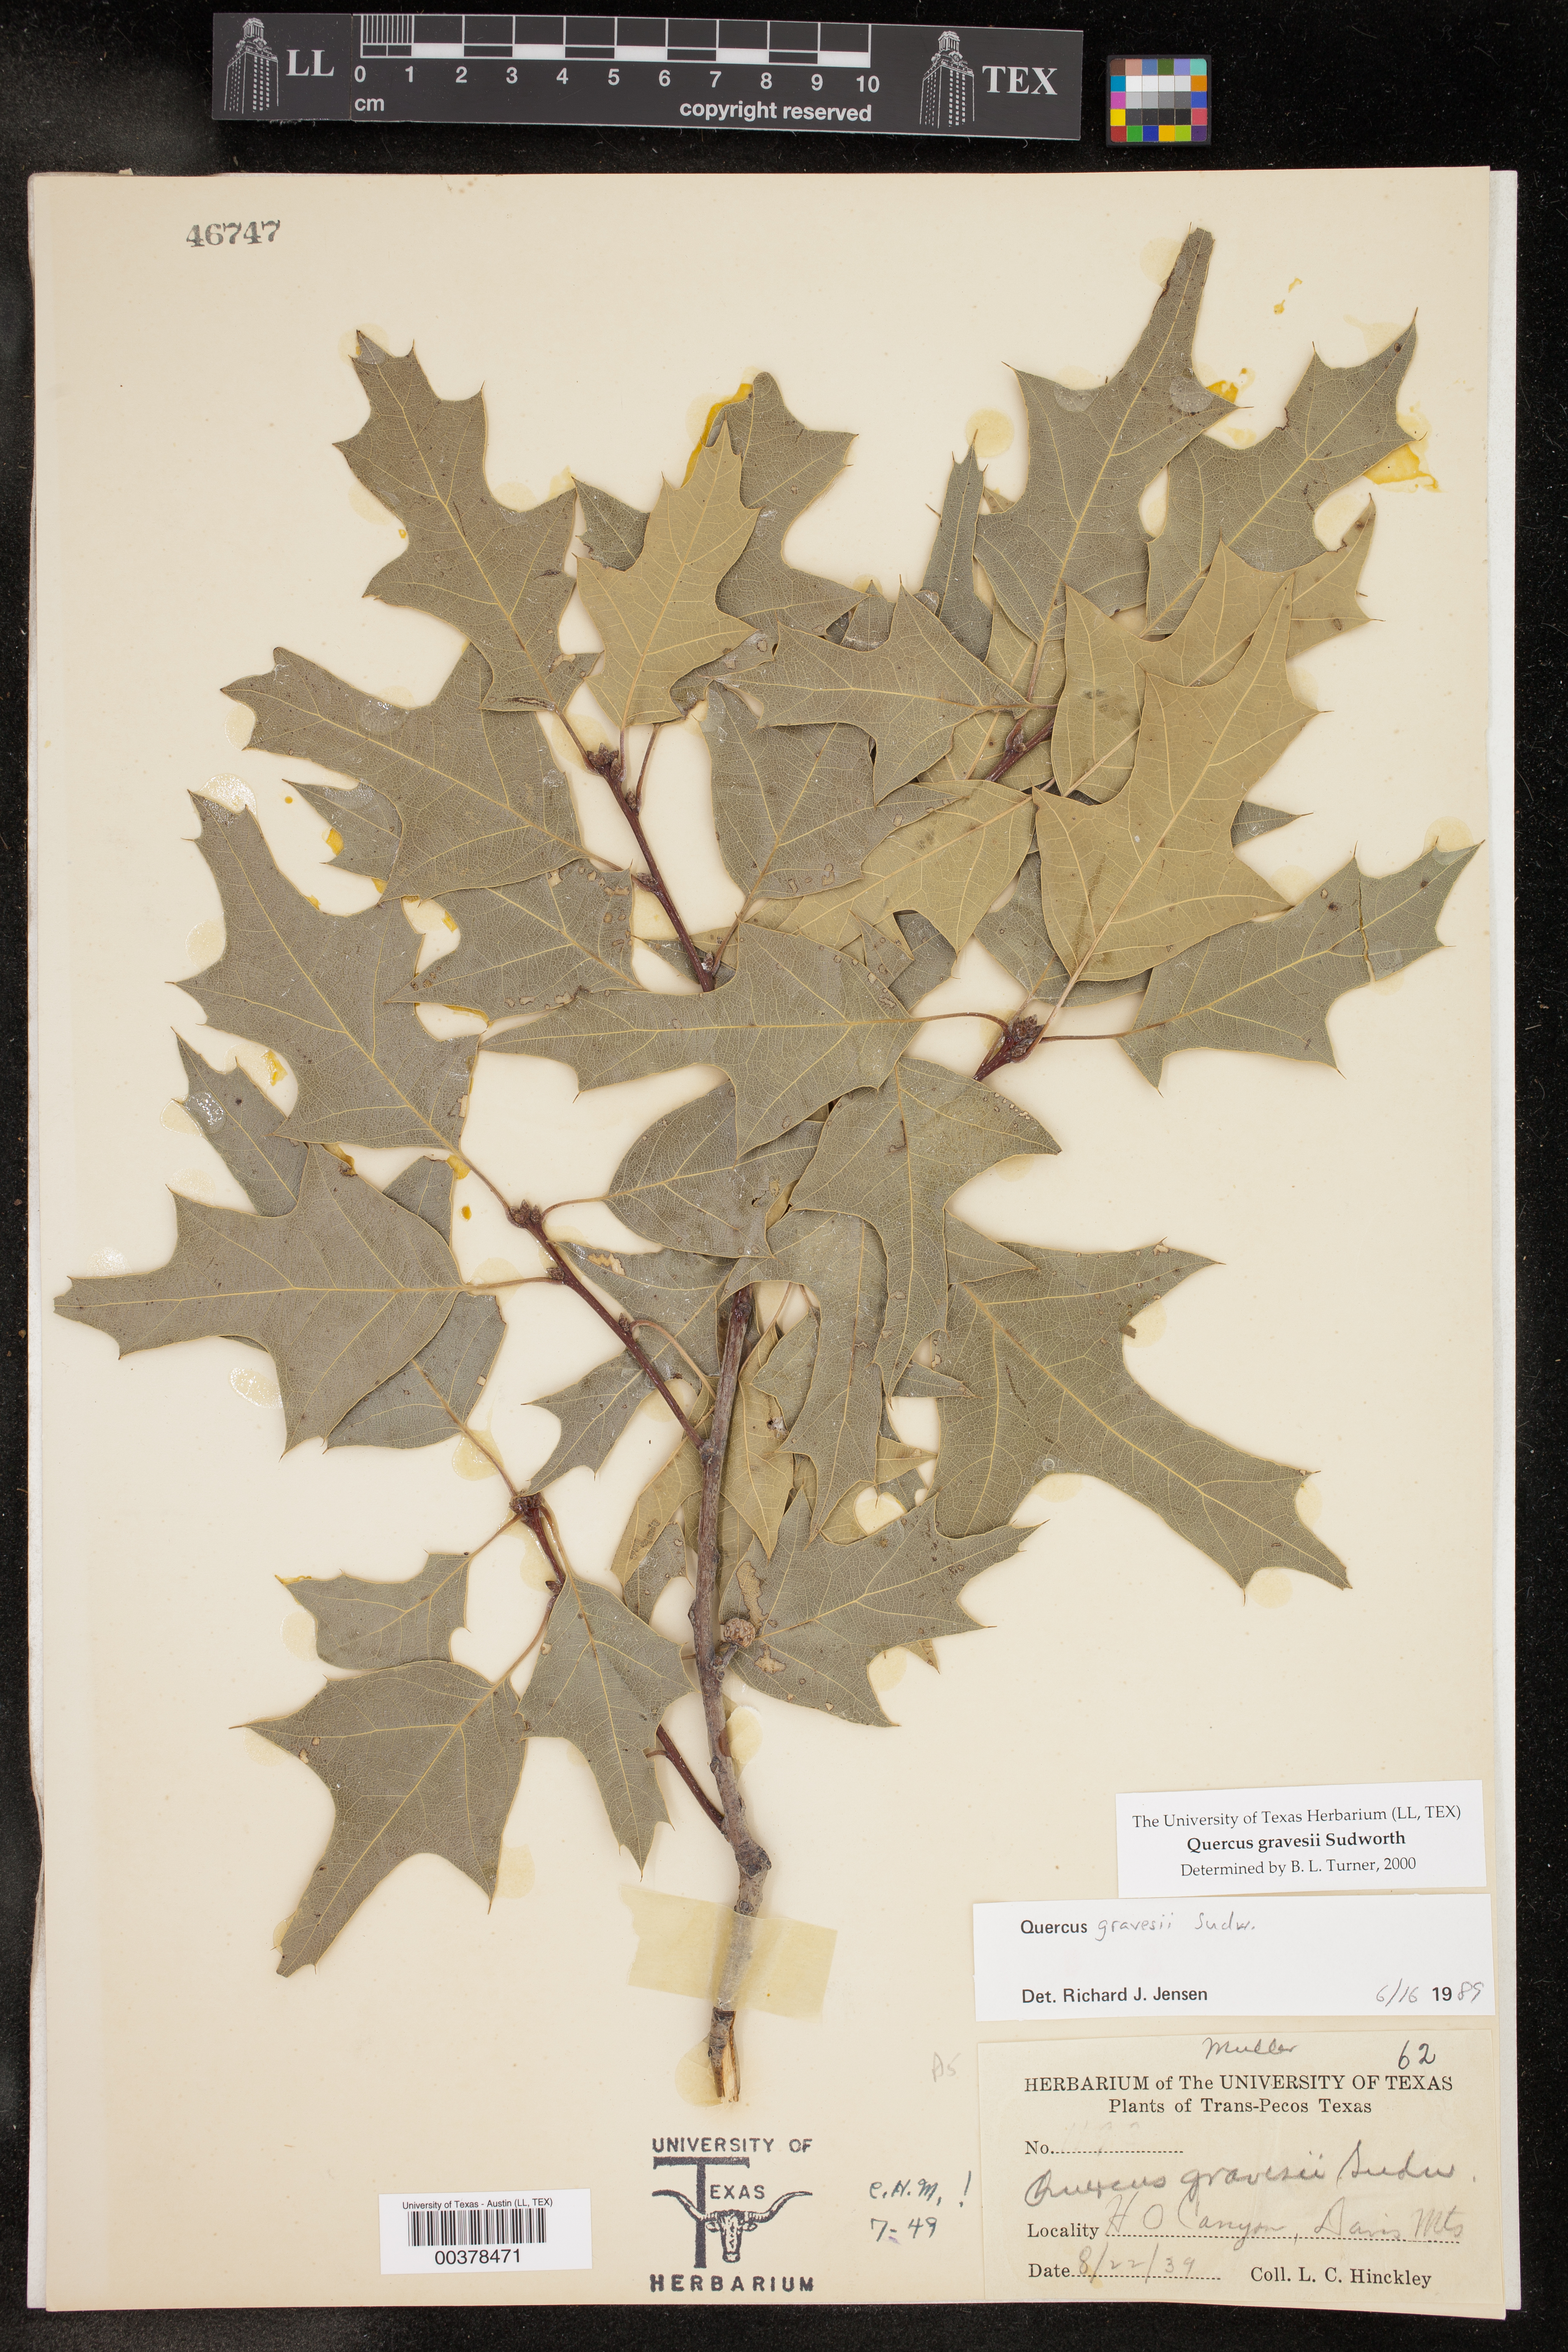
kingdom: Plantae
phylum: Tracheophyta
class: Magnoliopsida
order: Fagales
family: Fagaceae
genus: Quercus
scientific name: Quercus gravesii
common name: Chisos red oak
